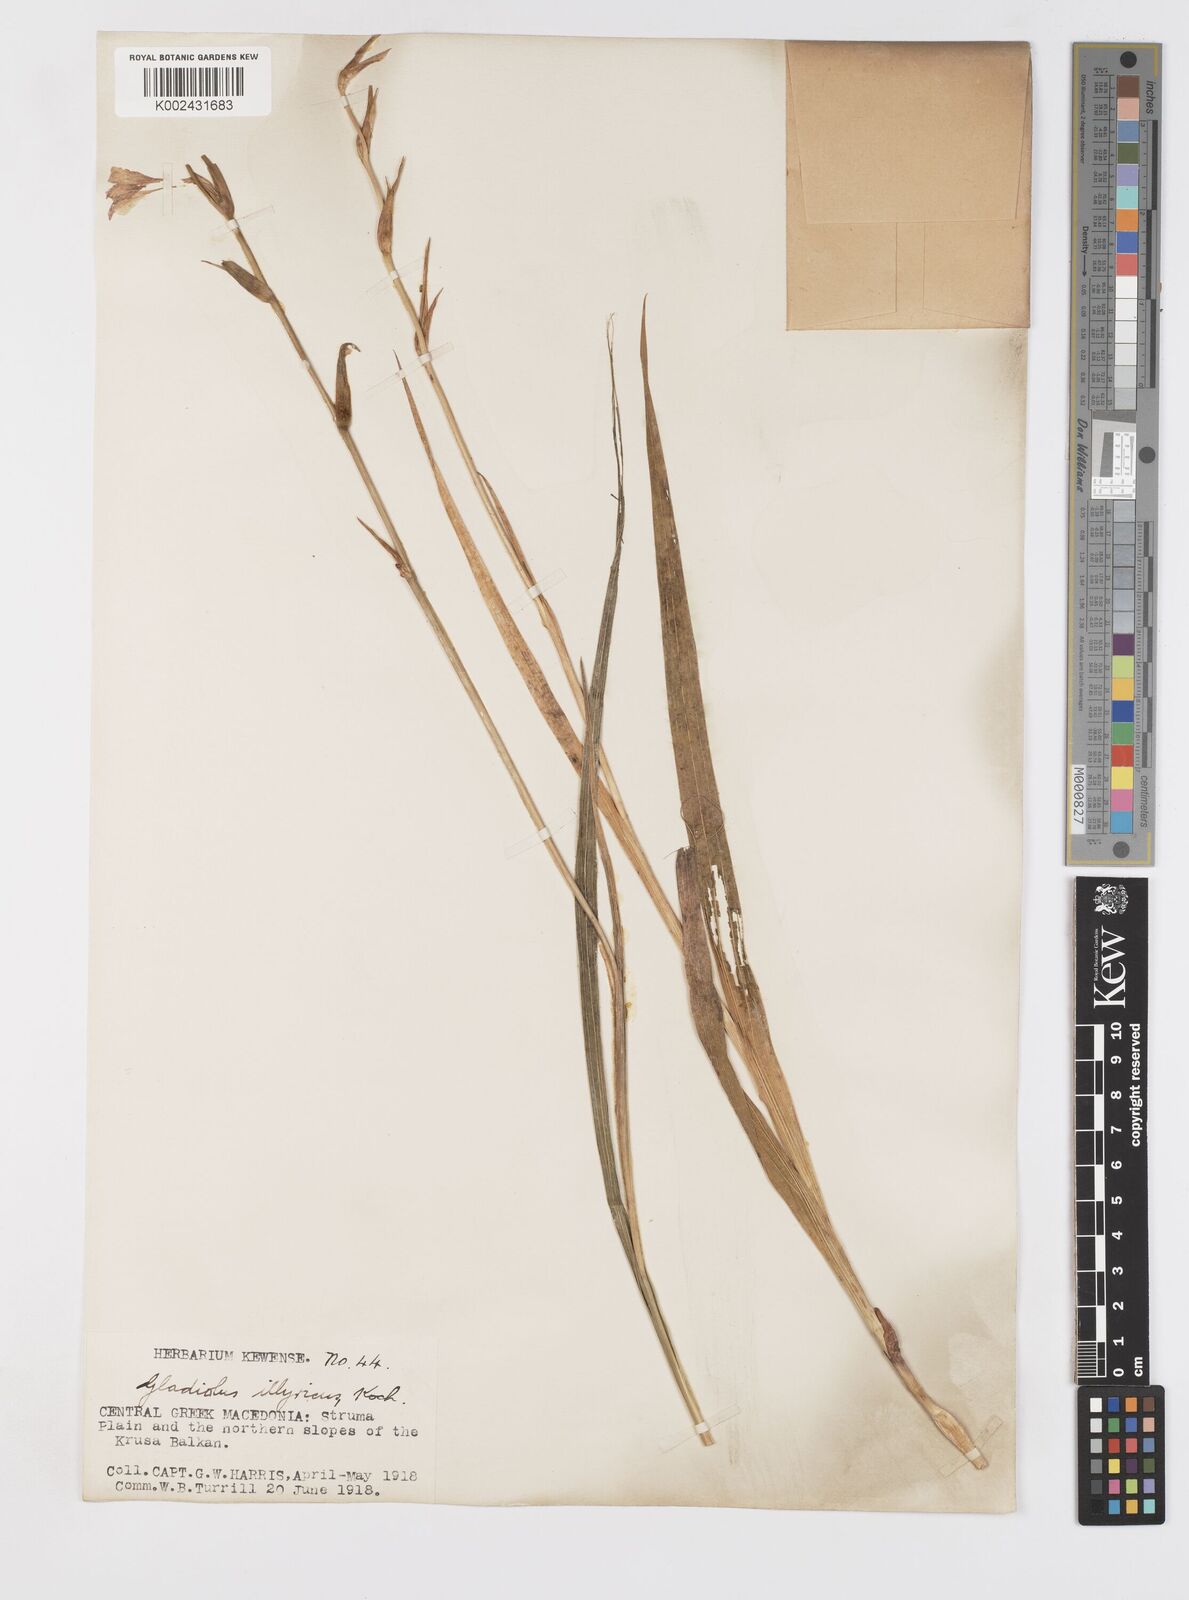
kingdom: Plantae
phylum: Tracheophyta
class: Liliopsida
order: Asparagales
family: Iridaceae
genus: Gladiolus
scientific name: Gladiolus illyricus
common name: Wild gladiolus
